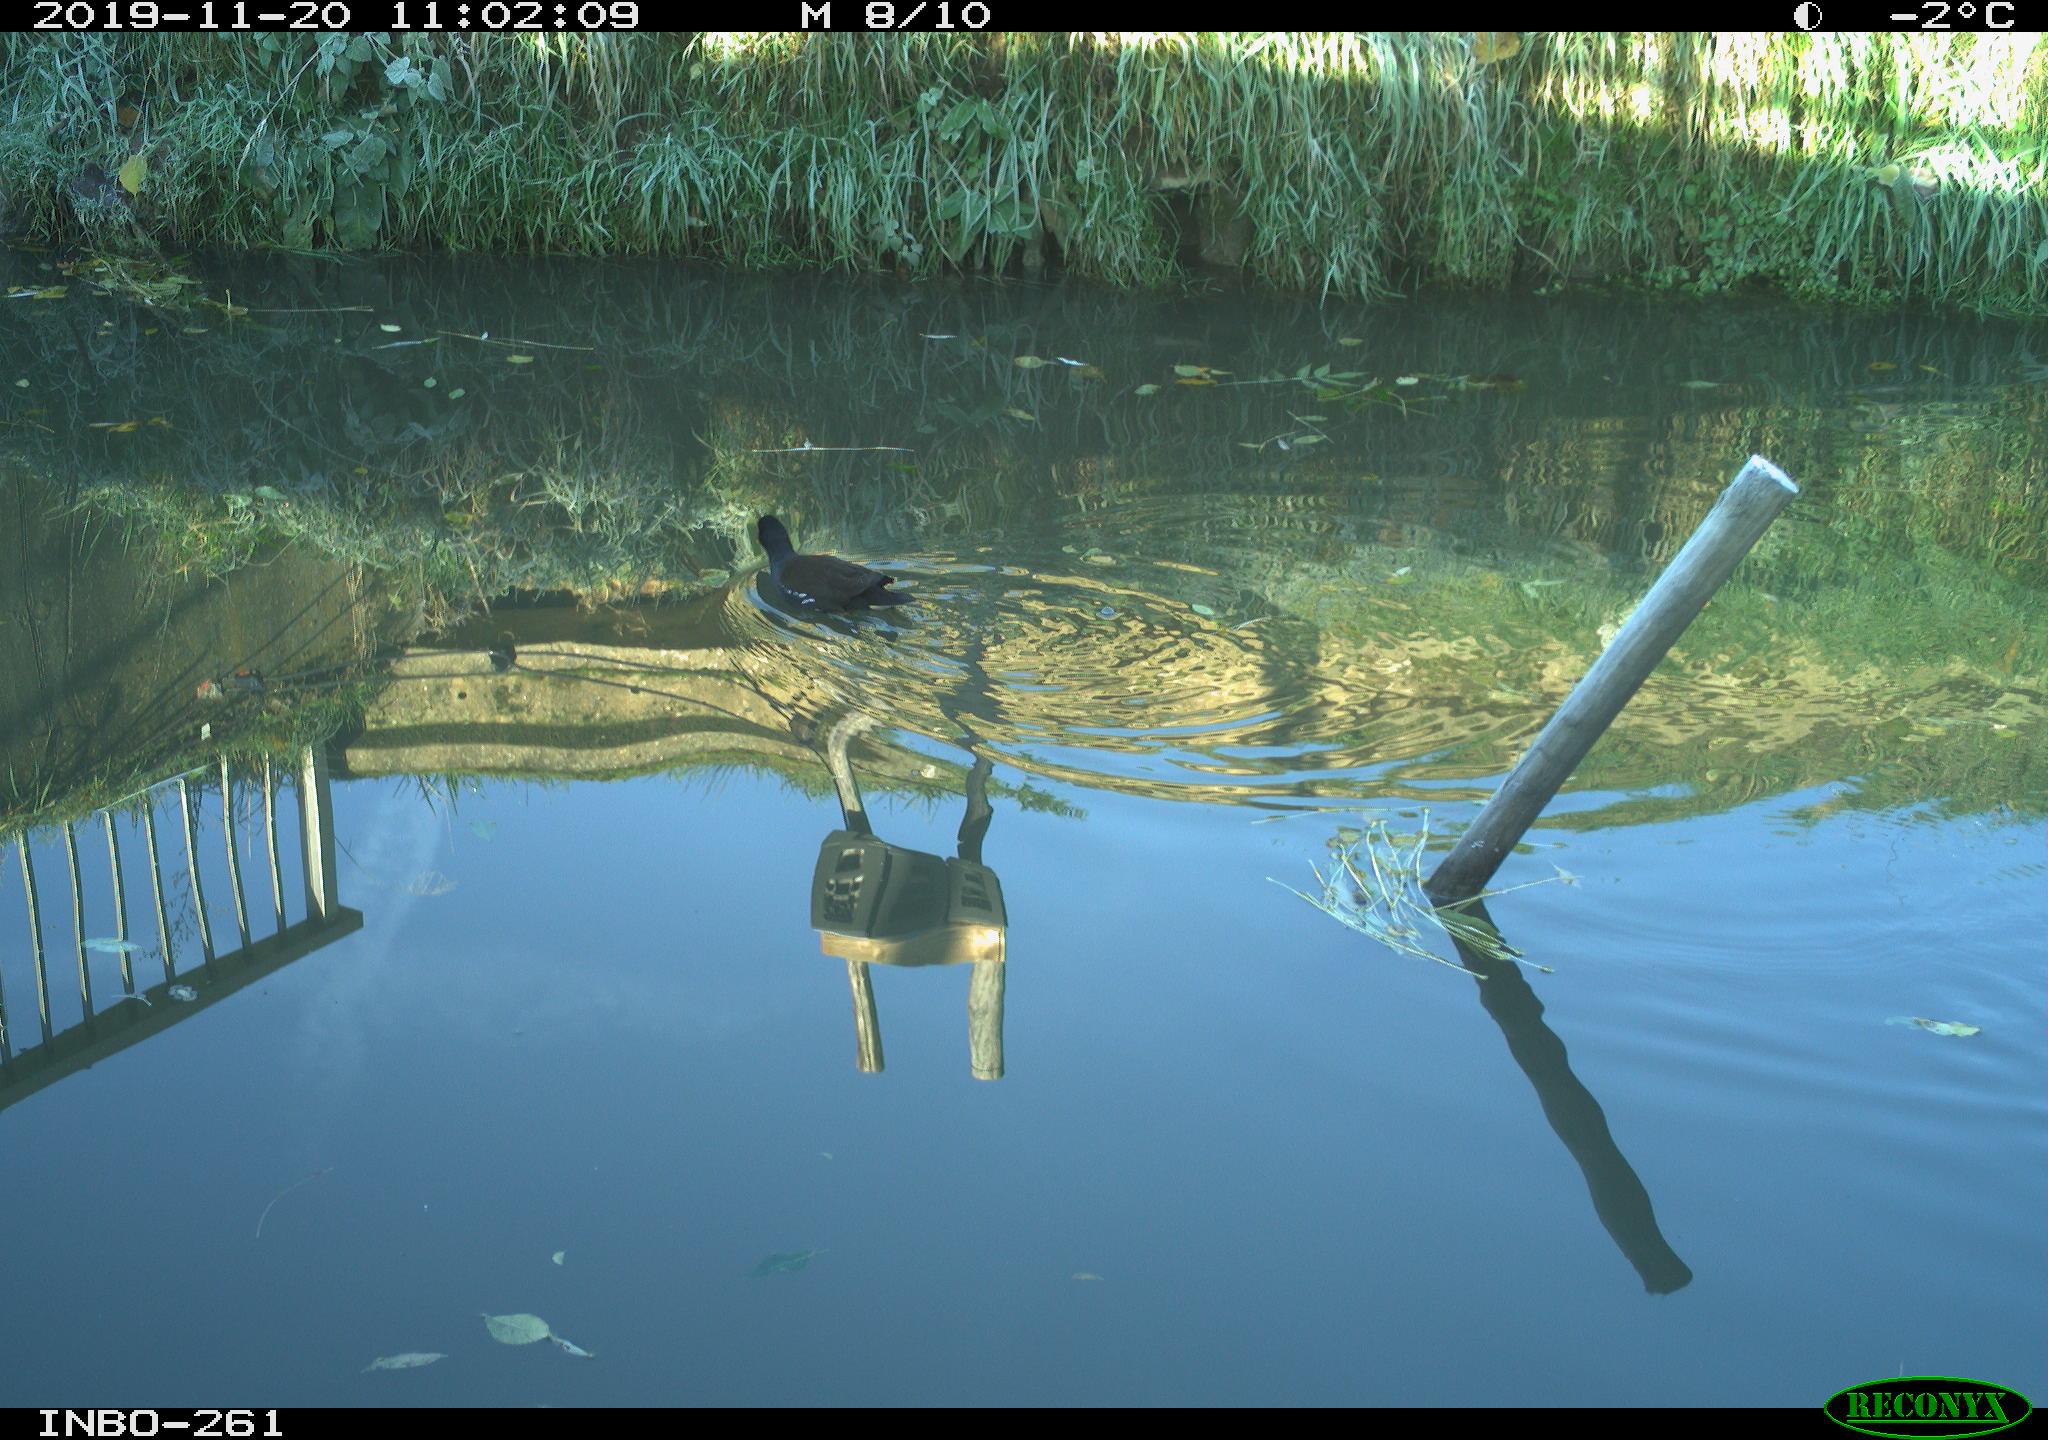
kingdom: Animalia
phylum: Chordata
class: Aves
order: Gruiformes
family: Rallidae
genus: Gallinula
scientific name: Gallinula chloropus
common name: Common moorhen
